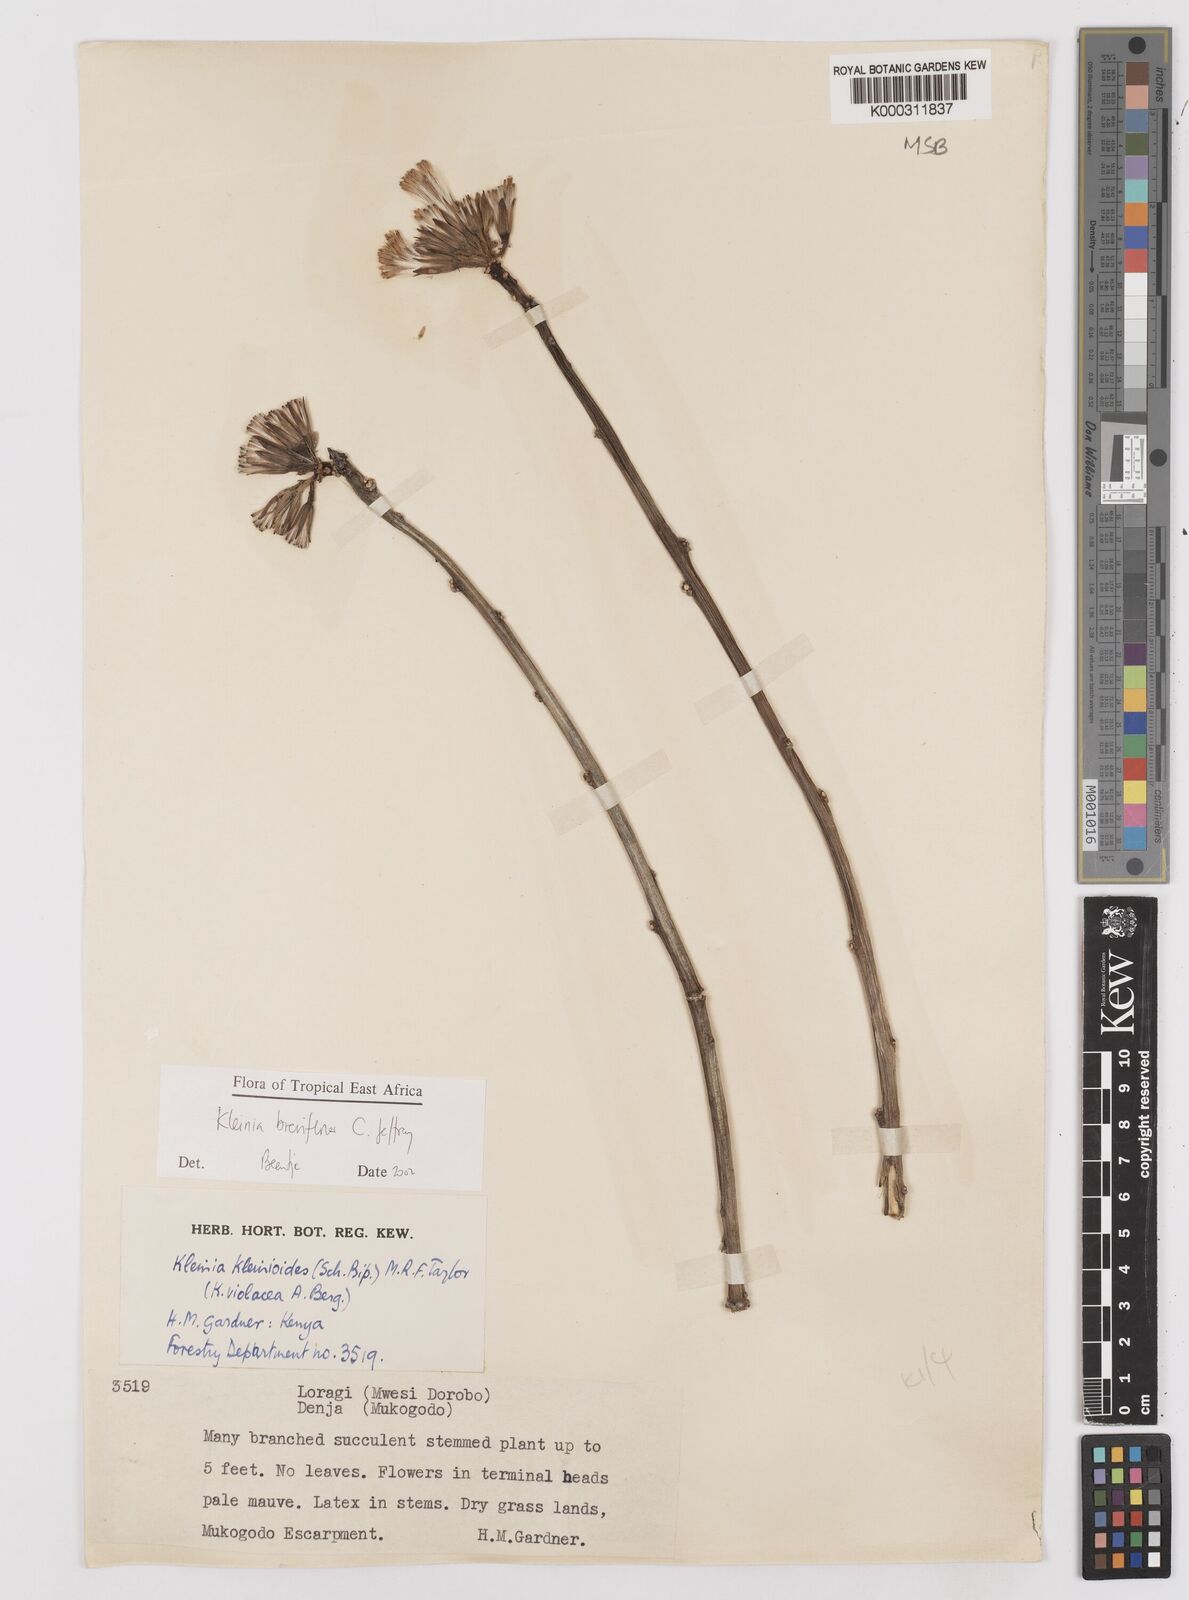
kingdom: Plantae
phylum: Tracheophyta
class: Magnoliopsida
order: Asterales
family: Asteraceae
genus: Kleinia
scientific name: Kleinia polycotoma
